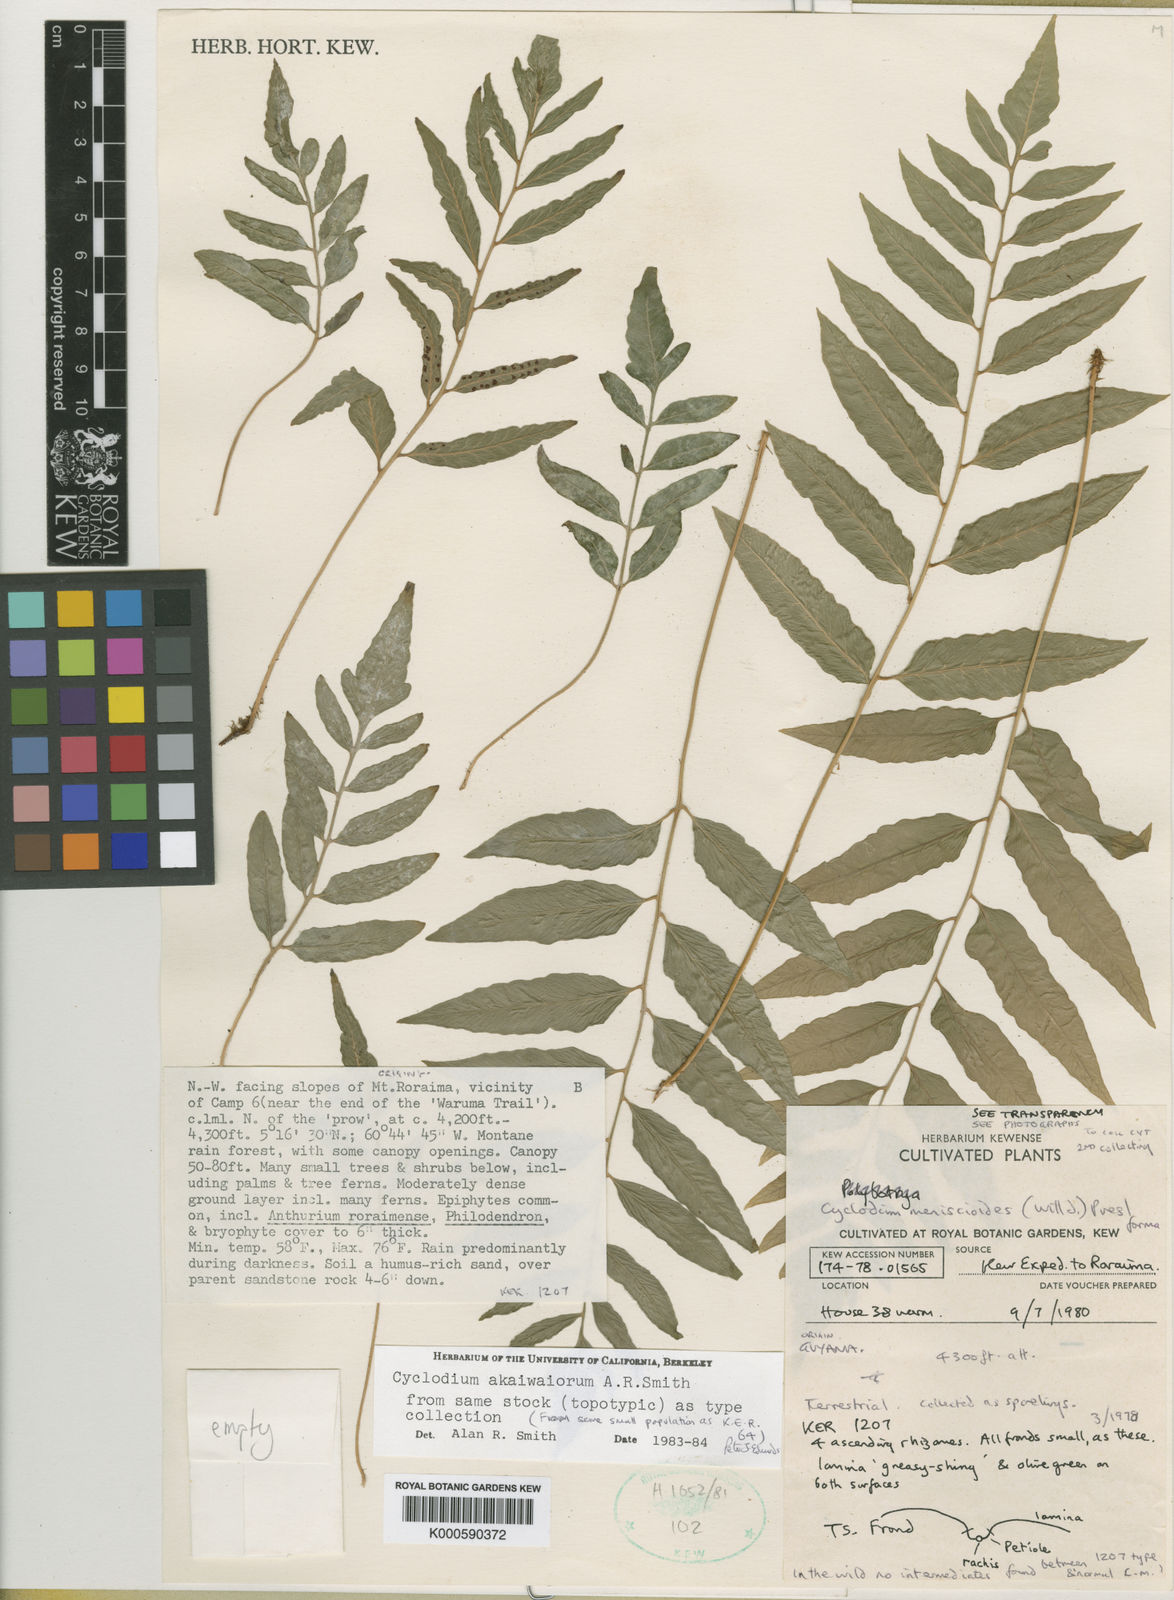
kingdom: Plantae
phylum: Tracheophyta
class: Polypodiopsida
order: Polypodiales
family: Dryopteridaceae
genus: Cyclodium
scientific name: Cyclodium akawaiorum
